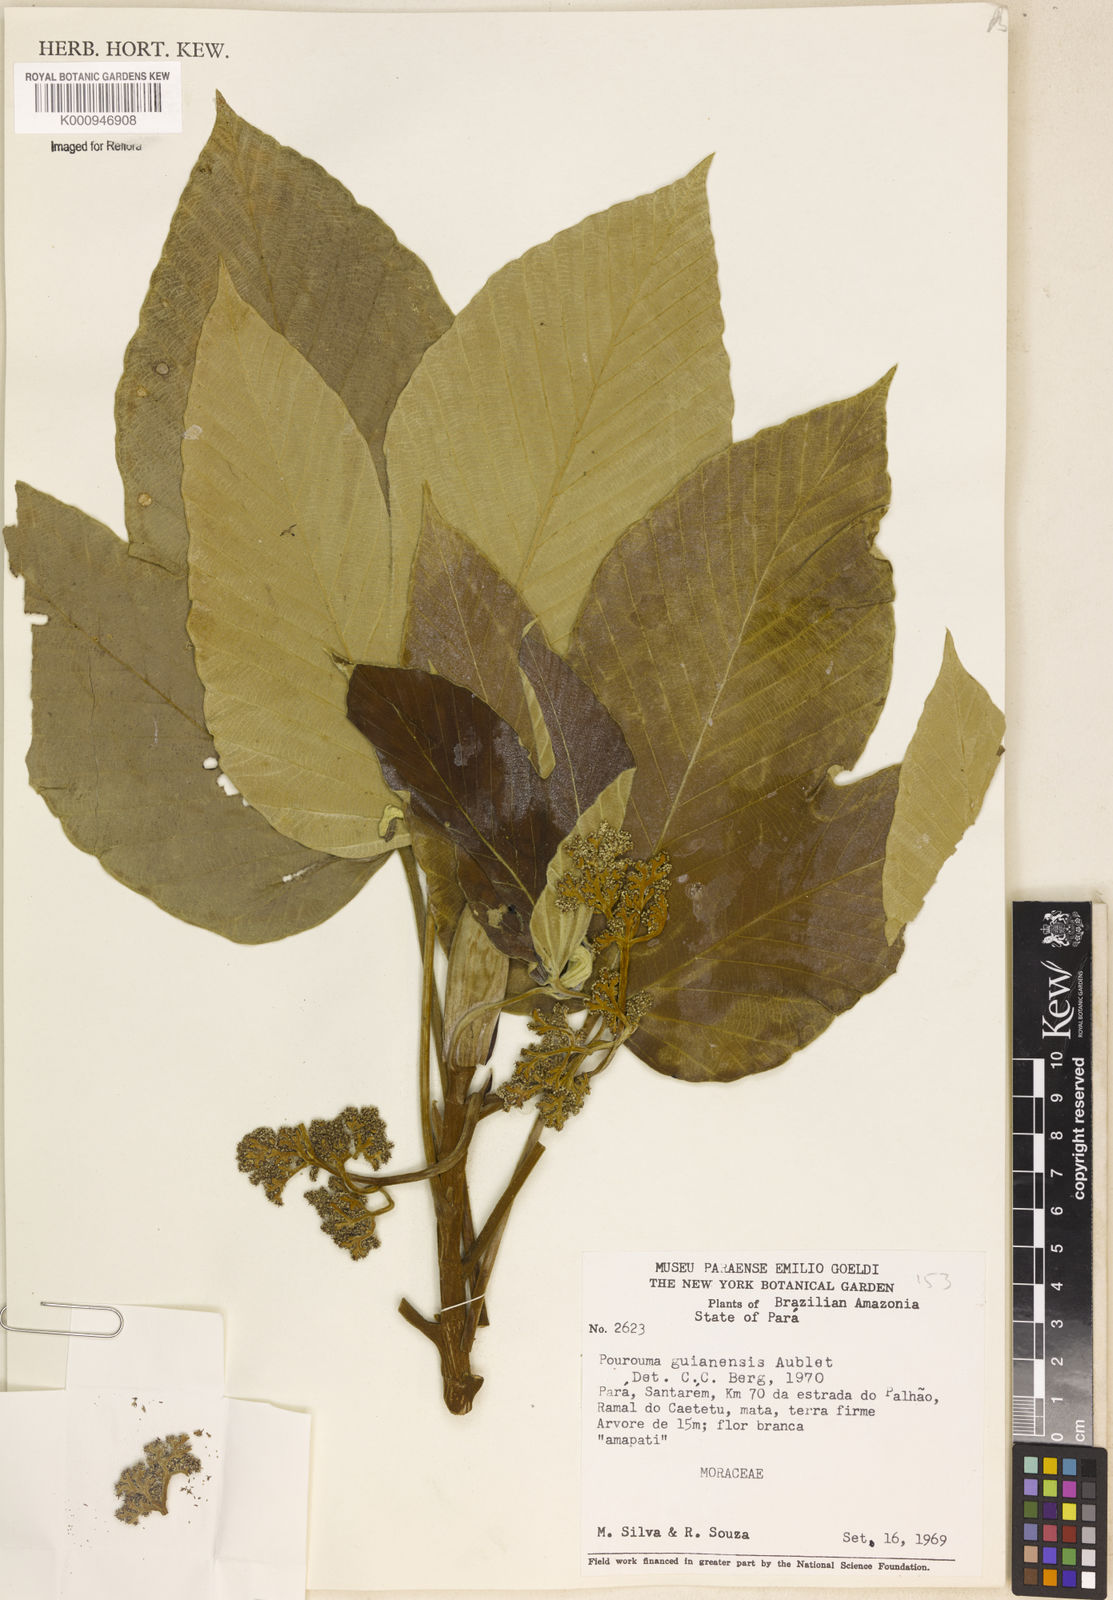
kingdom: Plantae
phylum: Tracheophyta
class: Magnoliopsida
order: Rosales
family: Urticaceae
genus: Pourouma
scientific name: Pourouma guianensis
